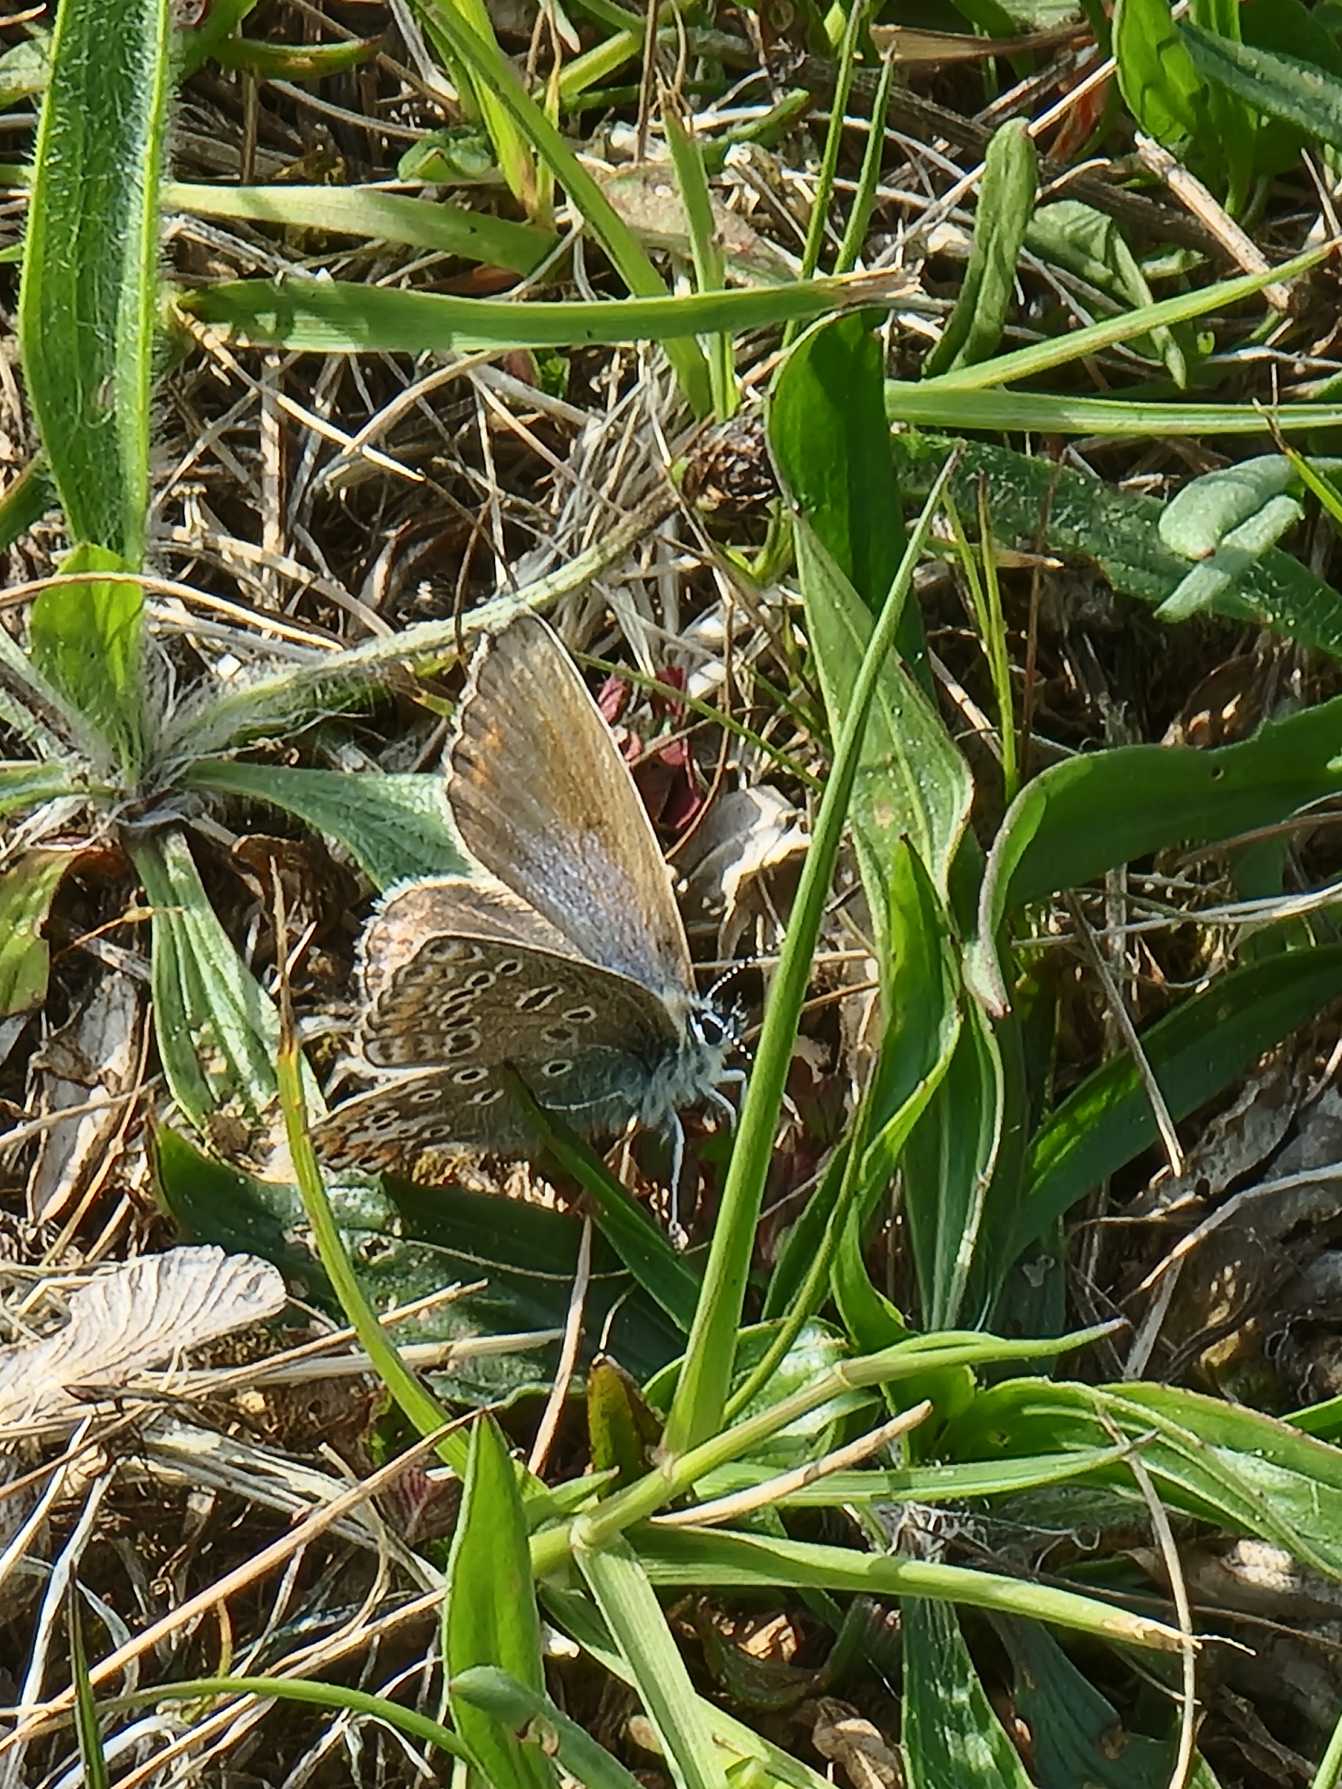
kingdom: Animalia
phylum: Arthropoda
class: Insecta
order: Lepidoptera
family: Lycaenidae
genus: Polyommatus
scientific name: Polyommatus icarus
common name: Almindelig blåfugl
